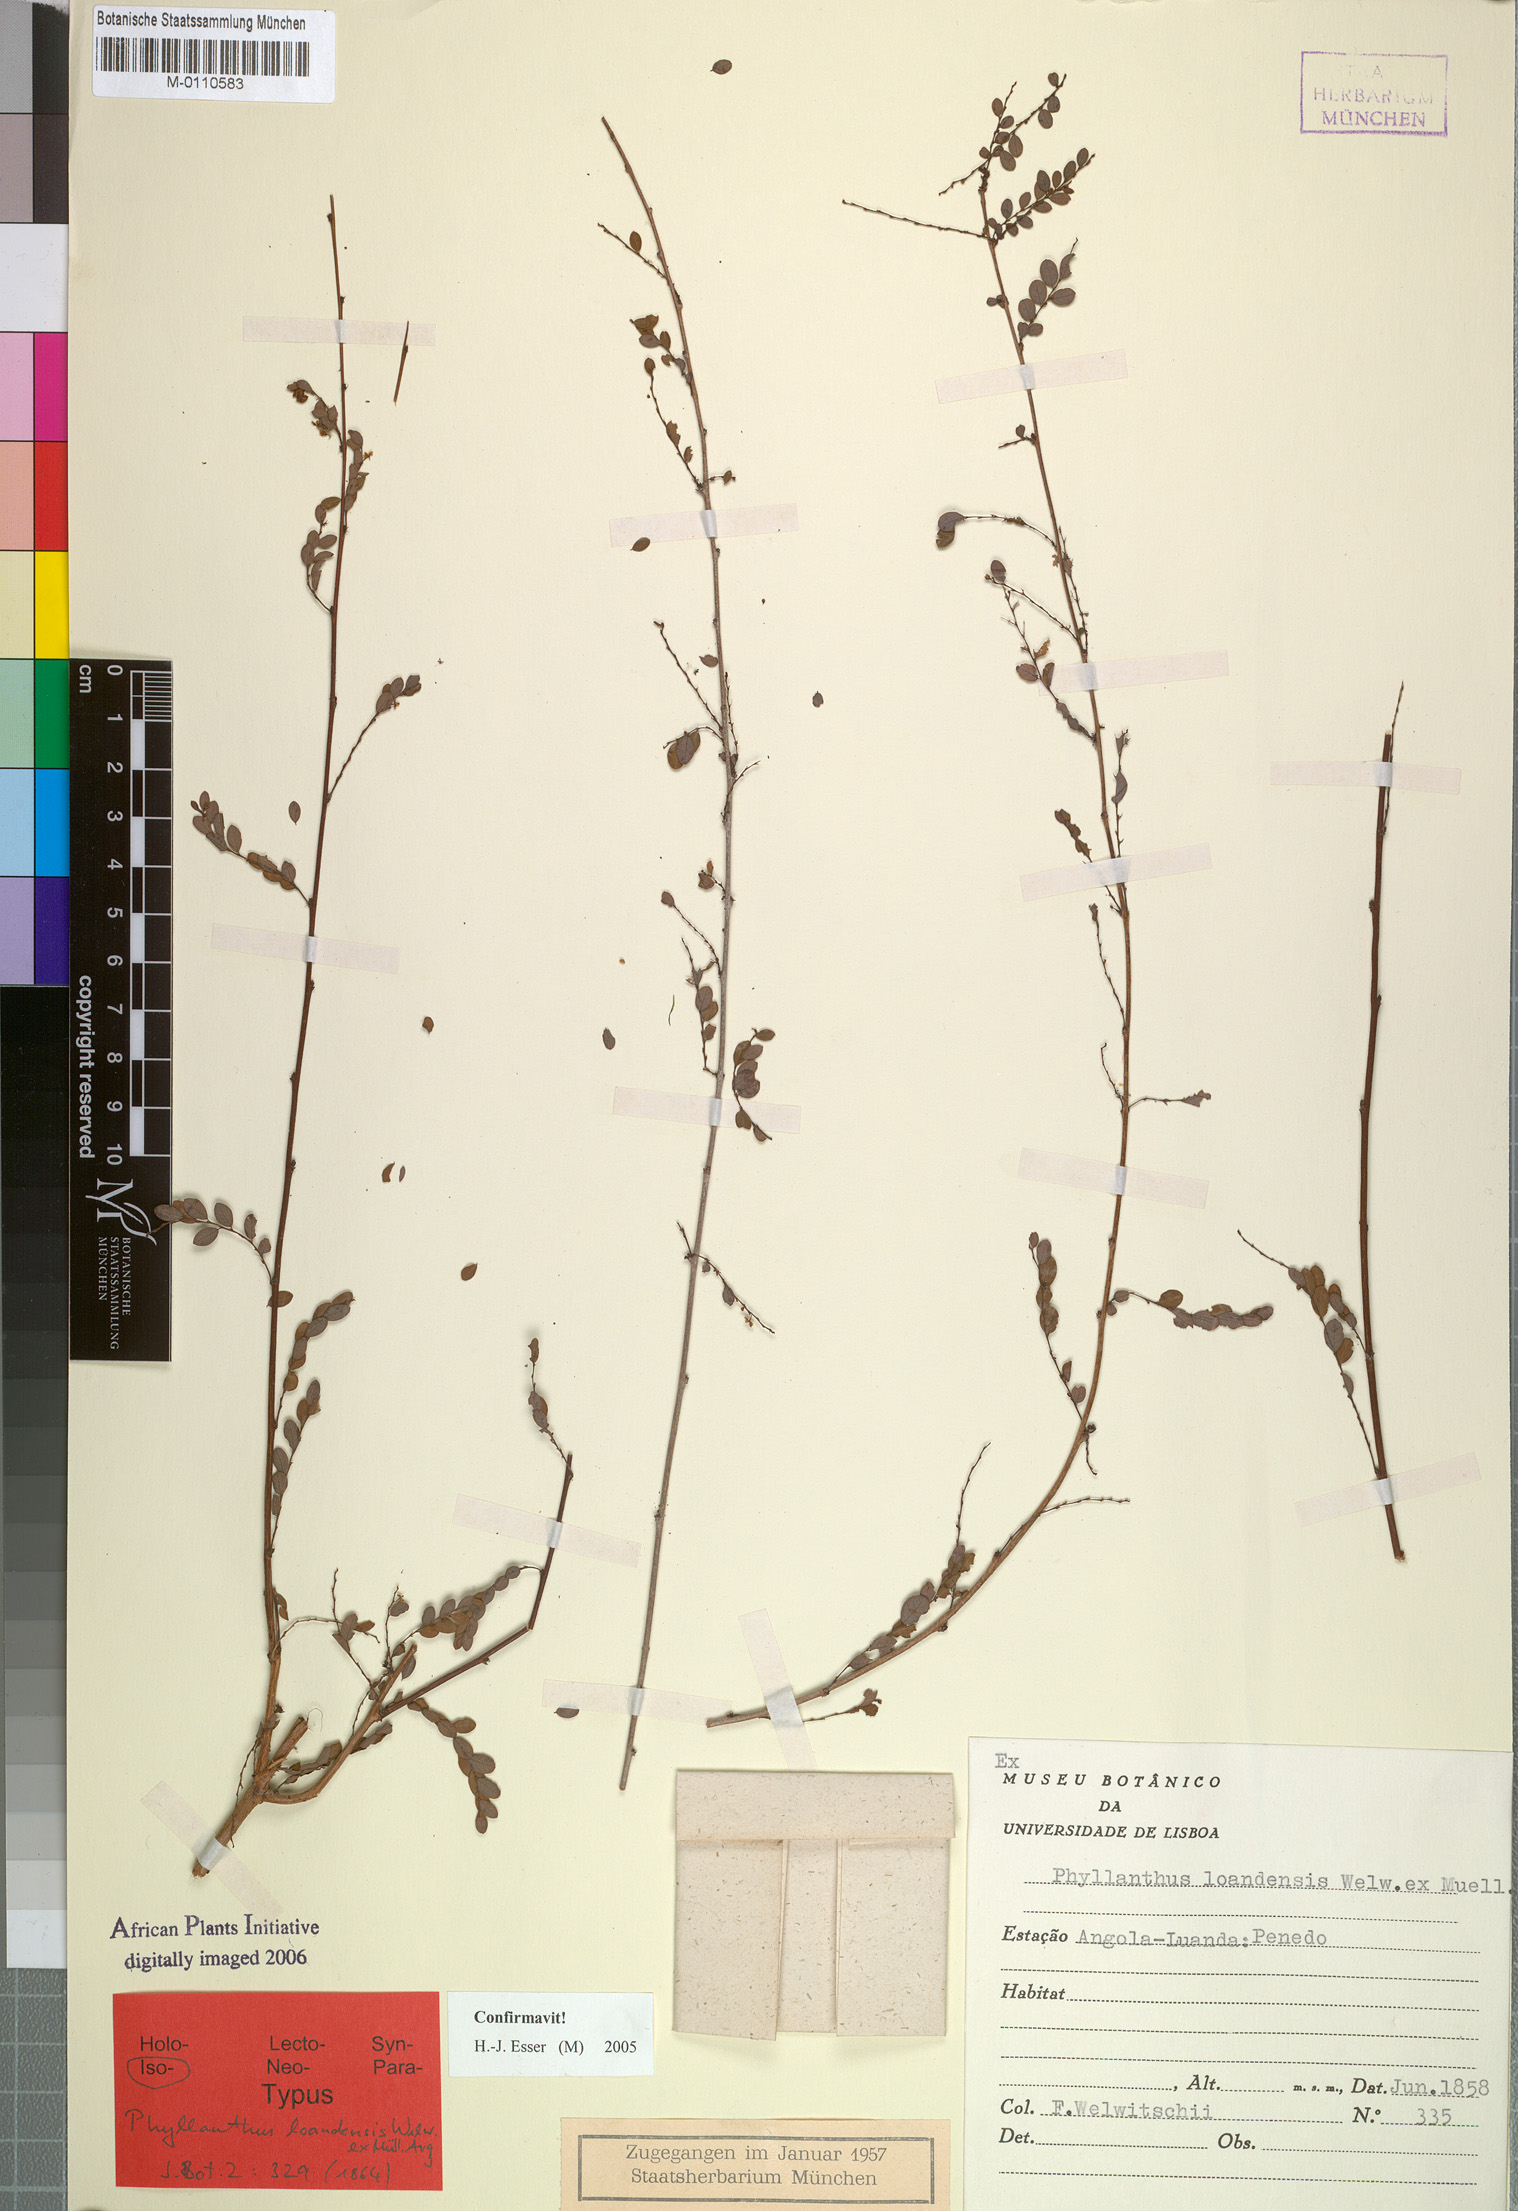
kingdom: Plantae
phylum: Tracheophyta
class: Magnoliopsida
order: Malpighiales
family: Phyllanthaceae
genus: Phyllanthus
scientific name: Phyllanthus loandensis
